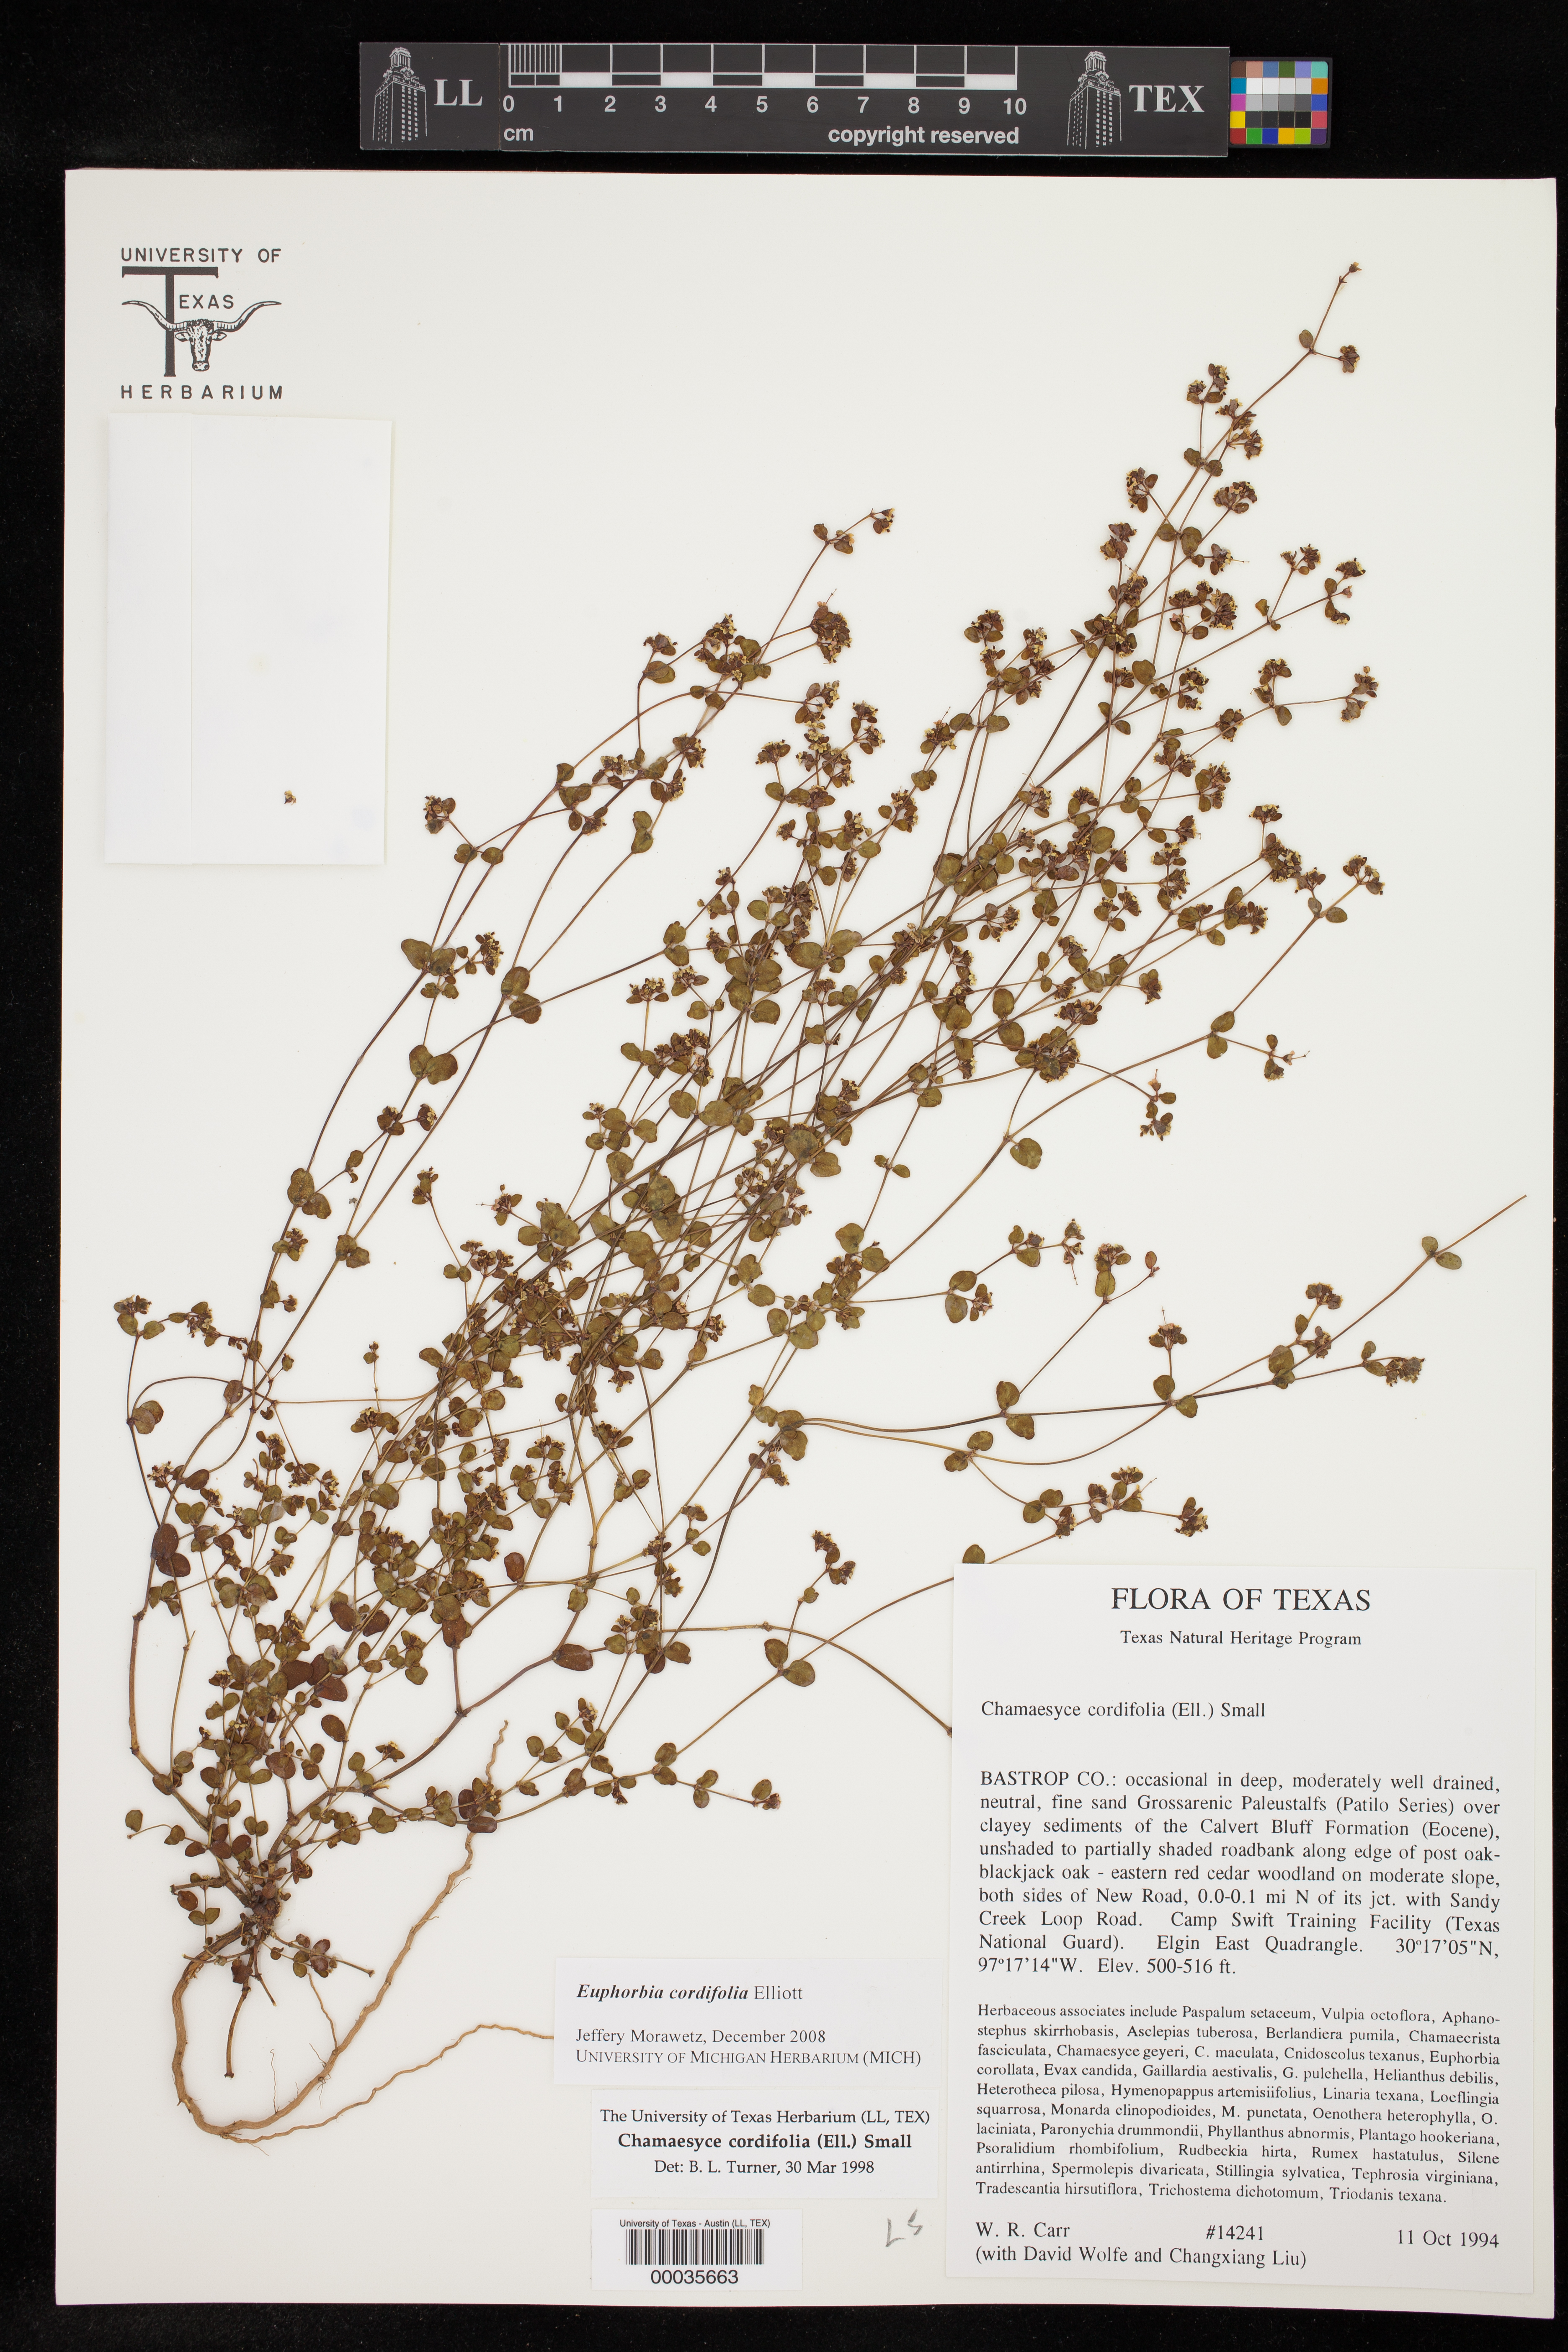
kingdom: Plantae
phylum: Tracheophyta
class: Magnoliopsida
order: Malpighiales
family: Euphorbiaceae
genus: Euphorbia
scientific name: Euphorbia cordifolia
